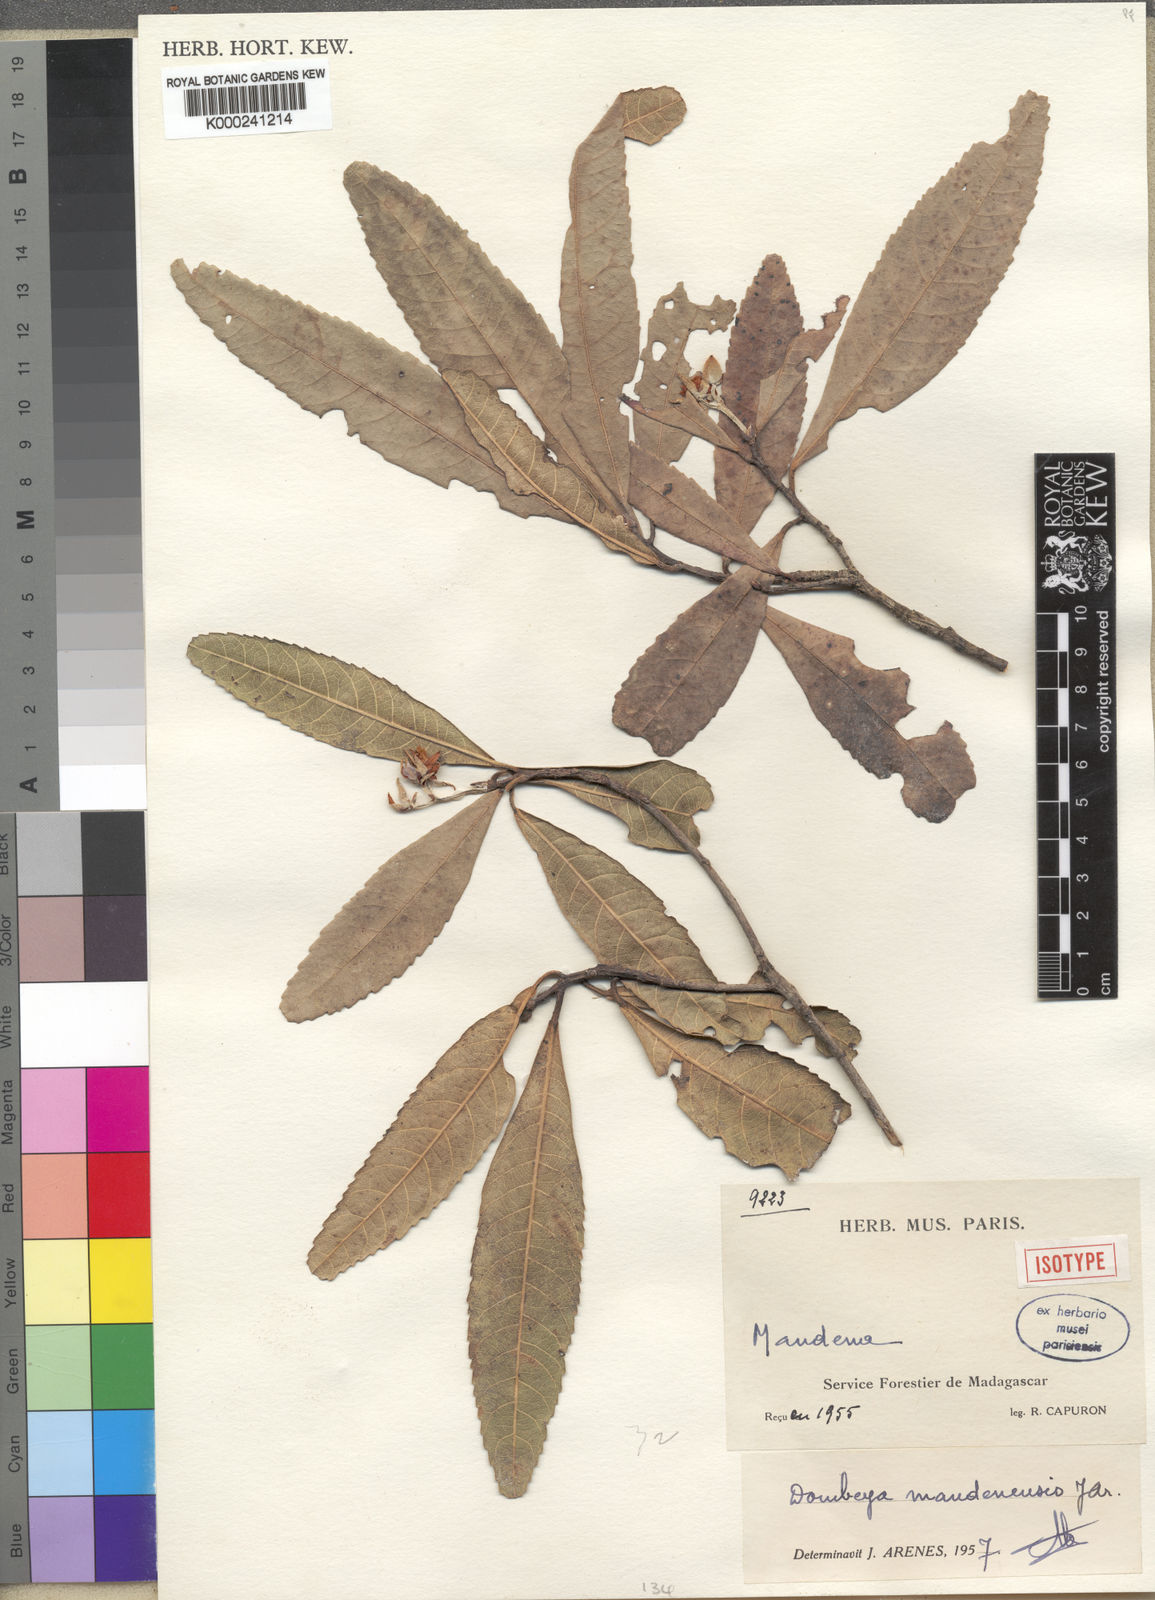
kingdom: Plantae
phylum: Tracheophyta
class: Magnoliopsida
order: Malvales
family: Malvaceae
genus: Dombeya
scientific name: Dombeya mandenensis
